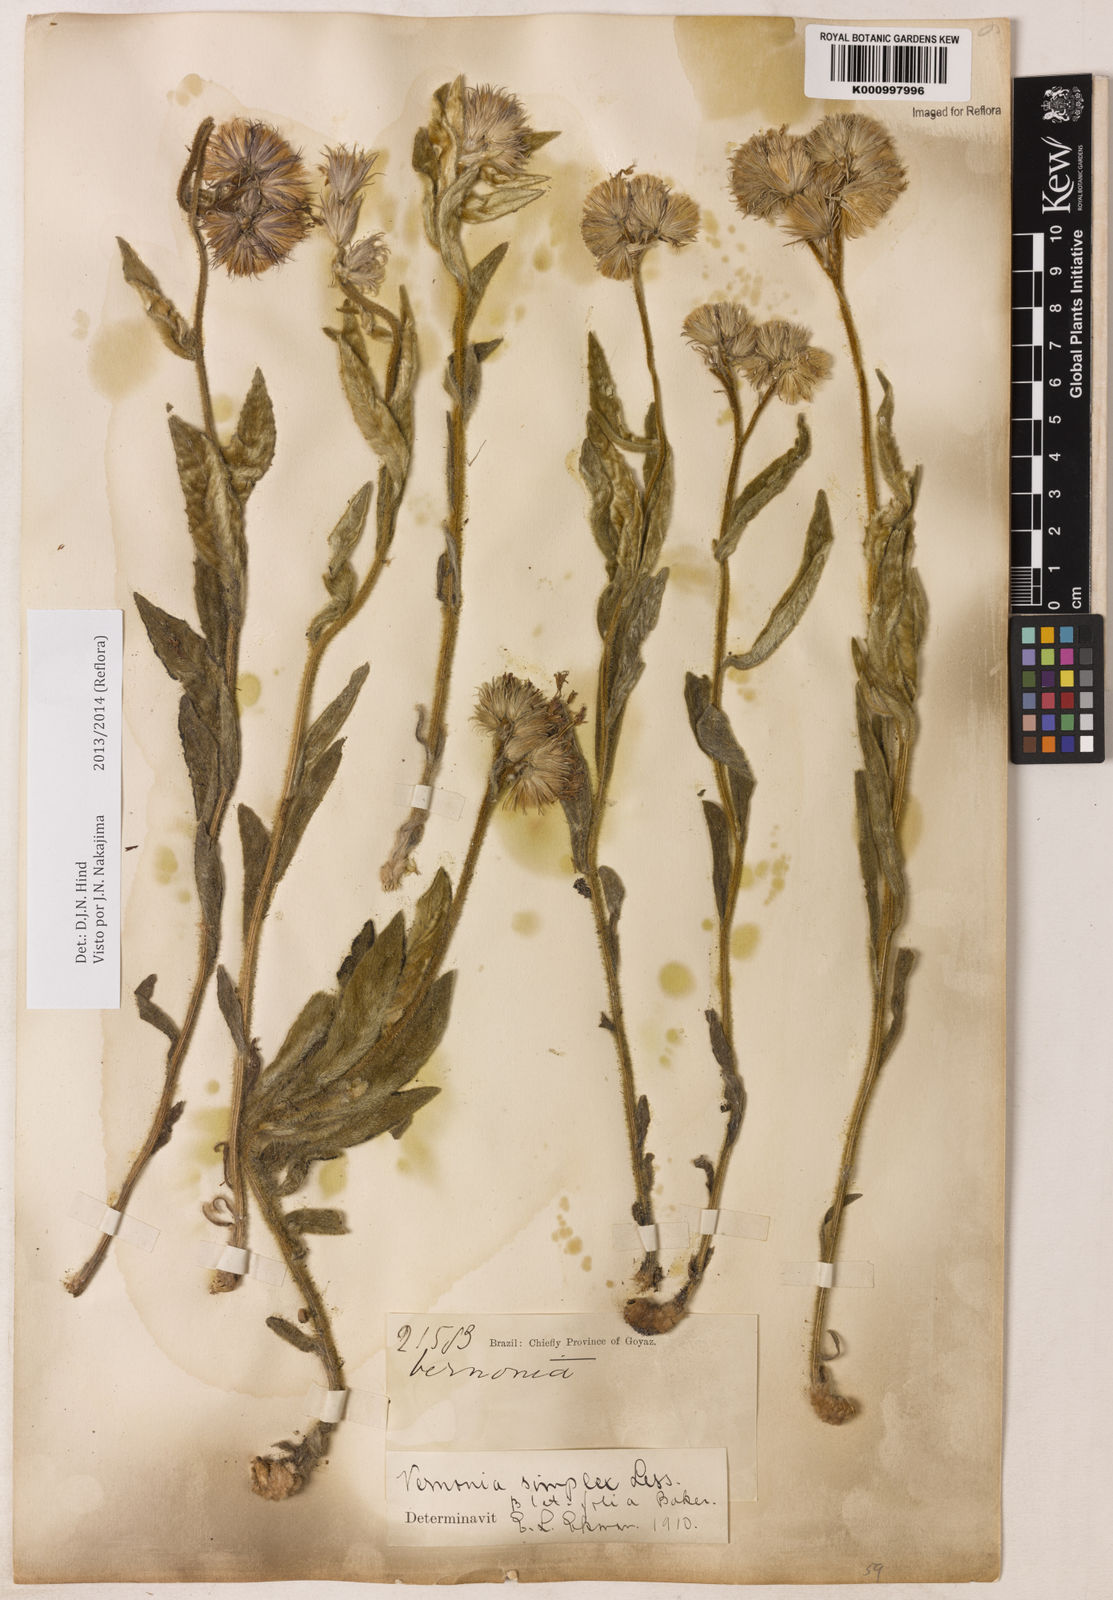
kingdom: Plantae
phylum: Tracheophyta
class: Magnoliopsida
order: Asterales
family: Asteraceae
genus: Chrysolaena
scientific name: Chrysolaena simplex
